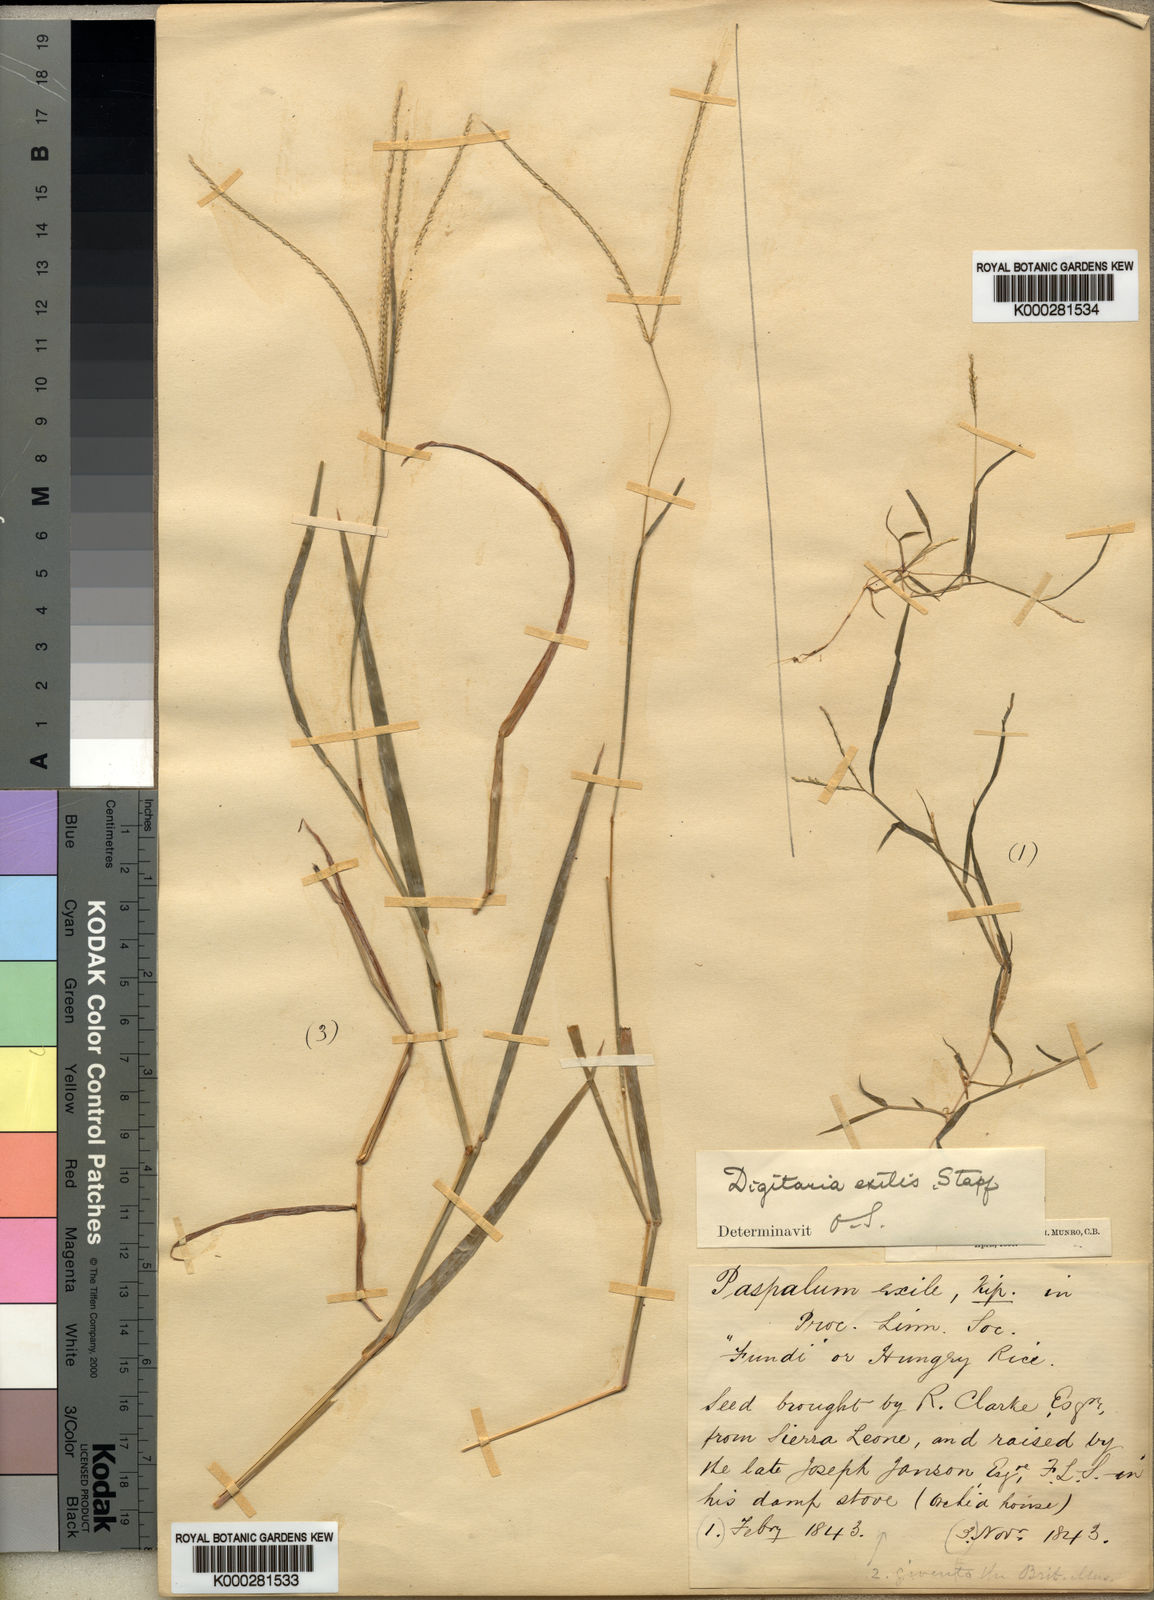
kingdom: Plantae
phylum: Tracheophyta
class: Liliopsida
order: Poales
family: Poaceae
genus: Digitaria
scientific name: Digitaria exilis
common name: Fonio millet
